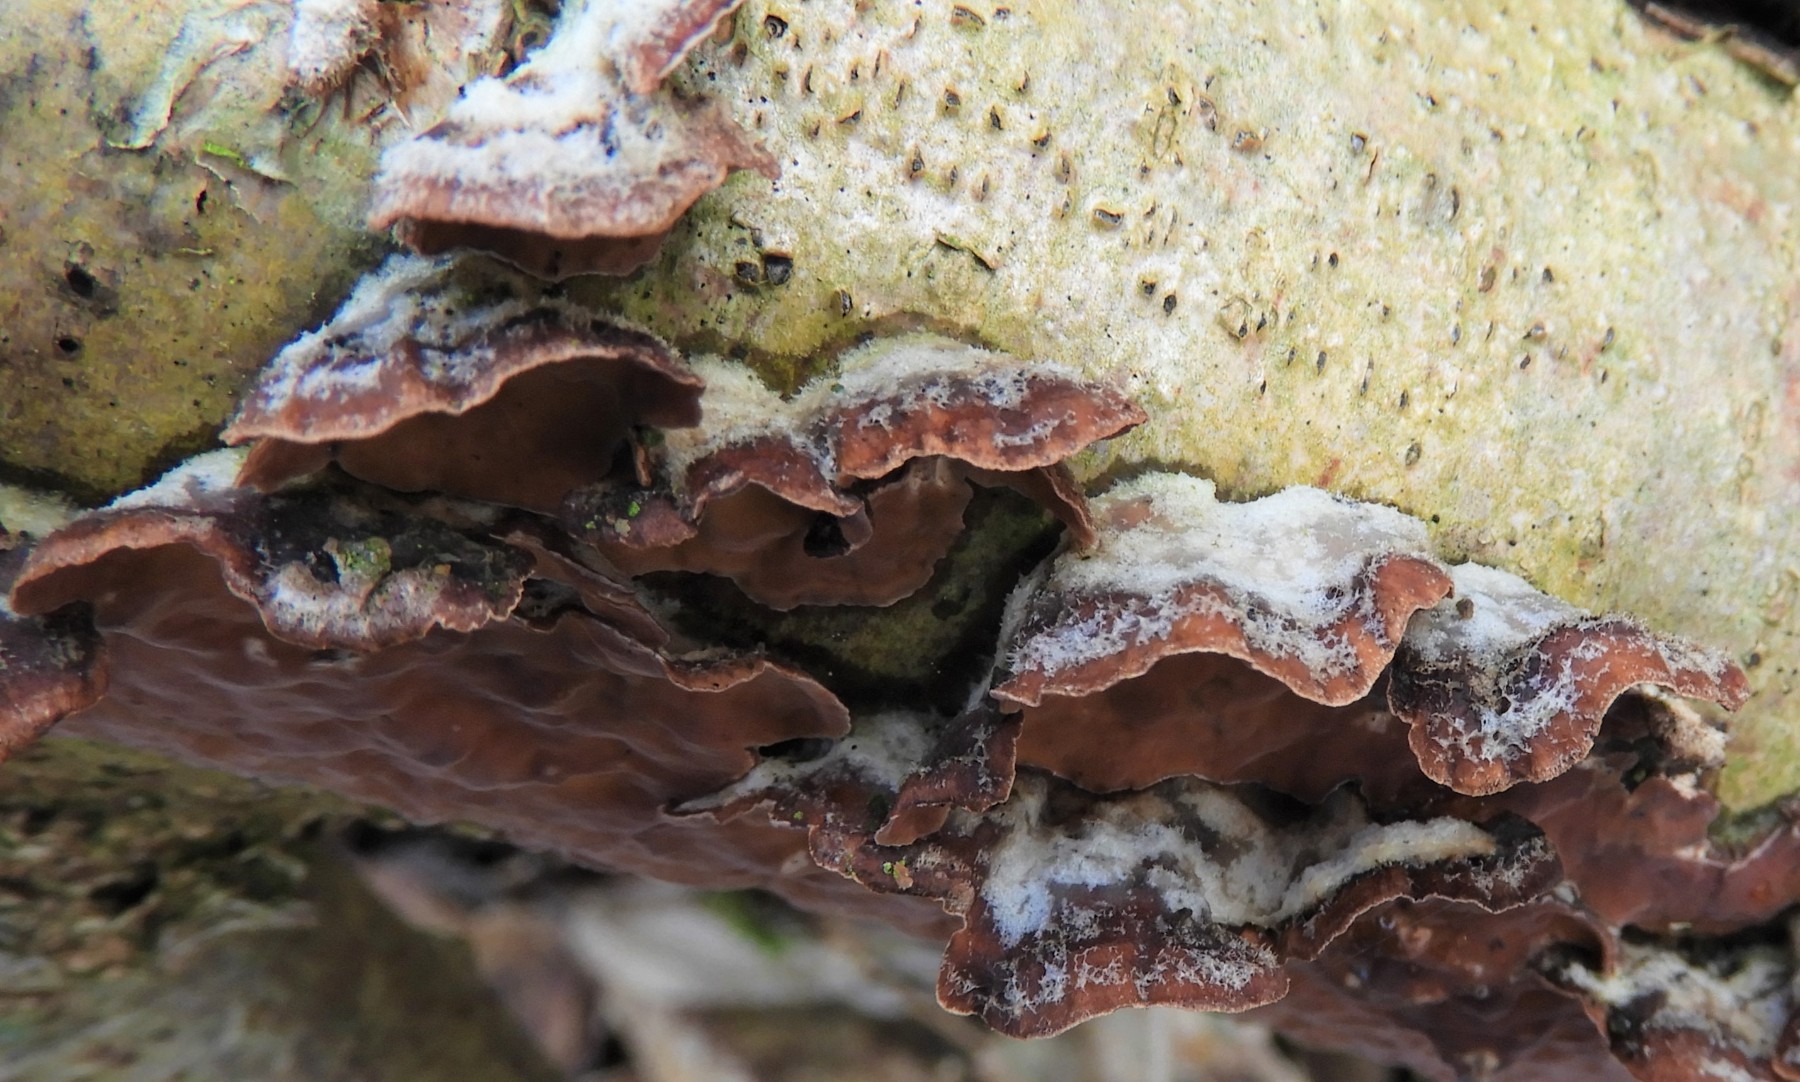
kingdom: Fungi
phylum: Basidiomycota
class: Agaricomycetes
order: Agaricales
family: Cyphellaceae
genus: Chondrostereum
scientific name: Chondrostereum purpureum
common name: purpurlædersvamp
